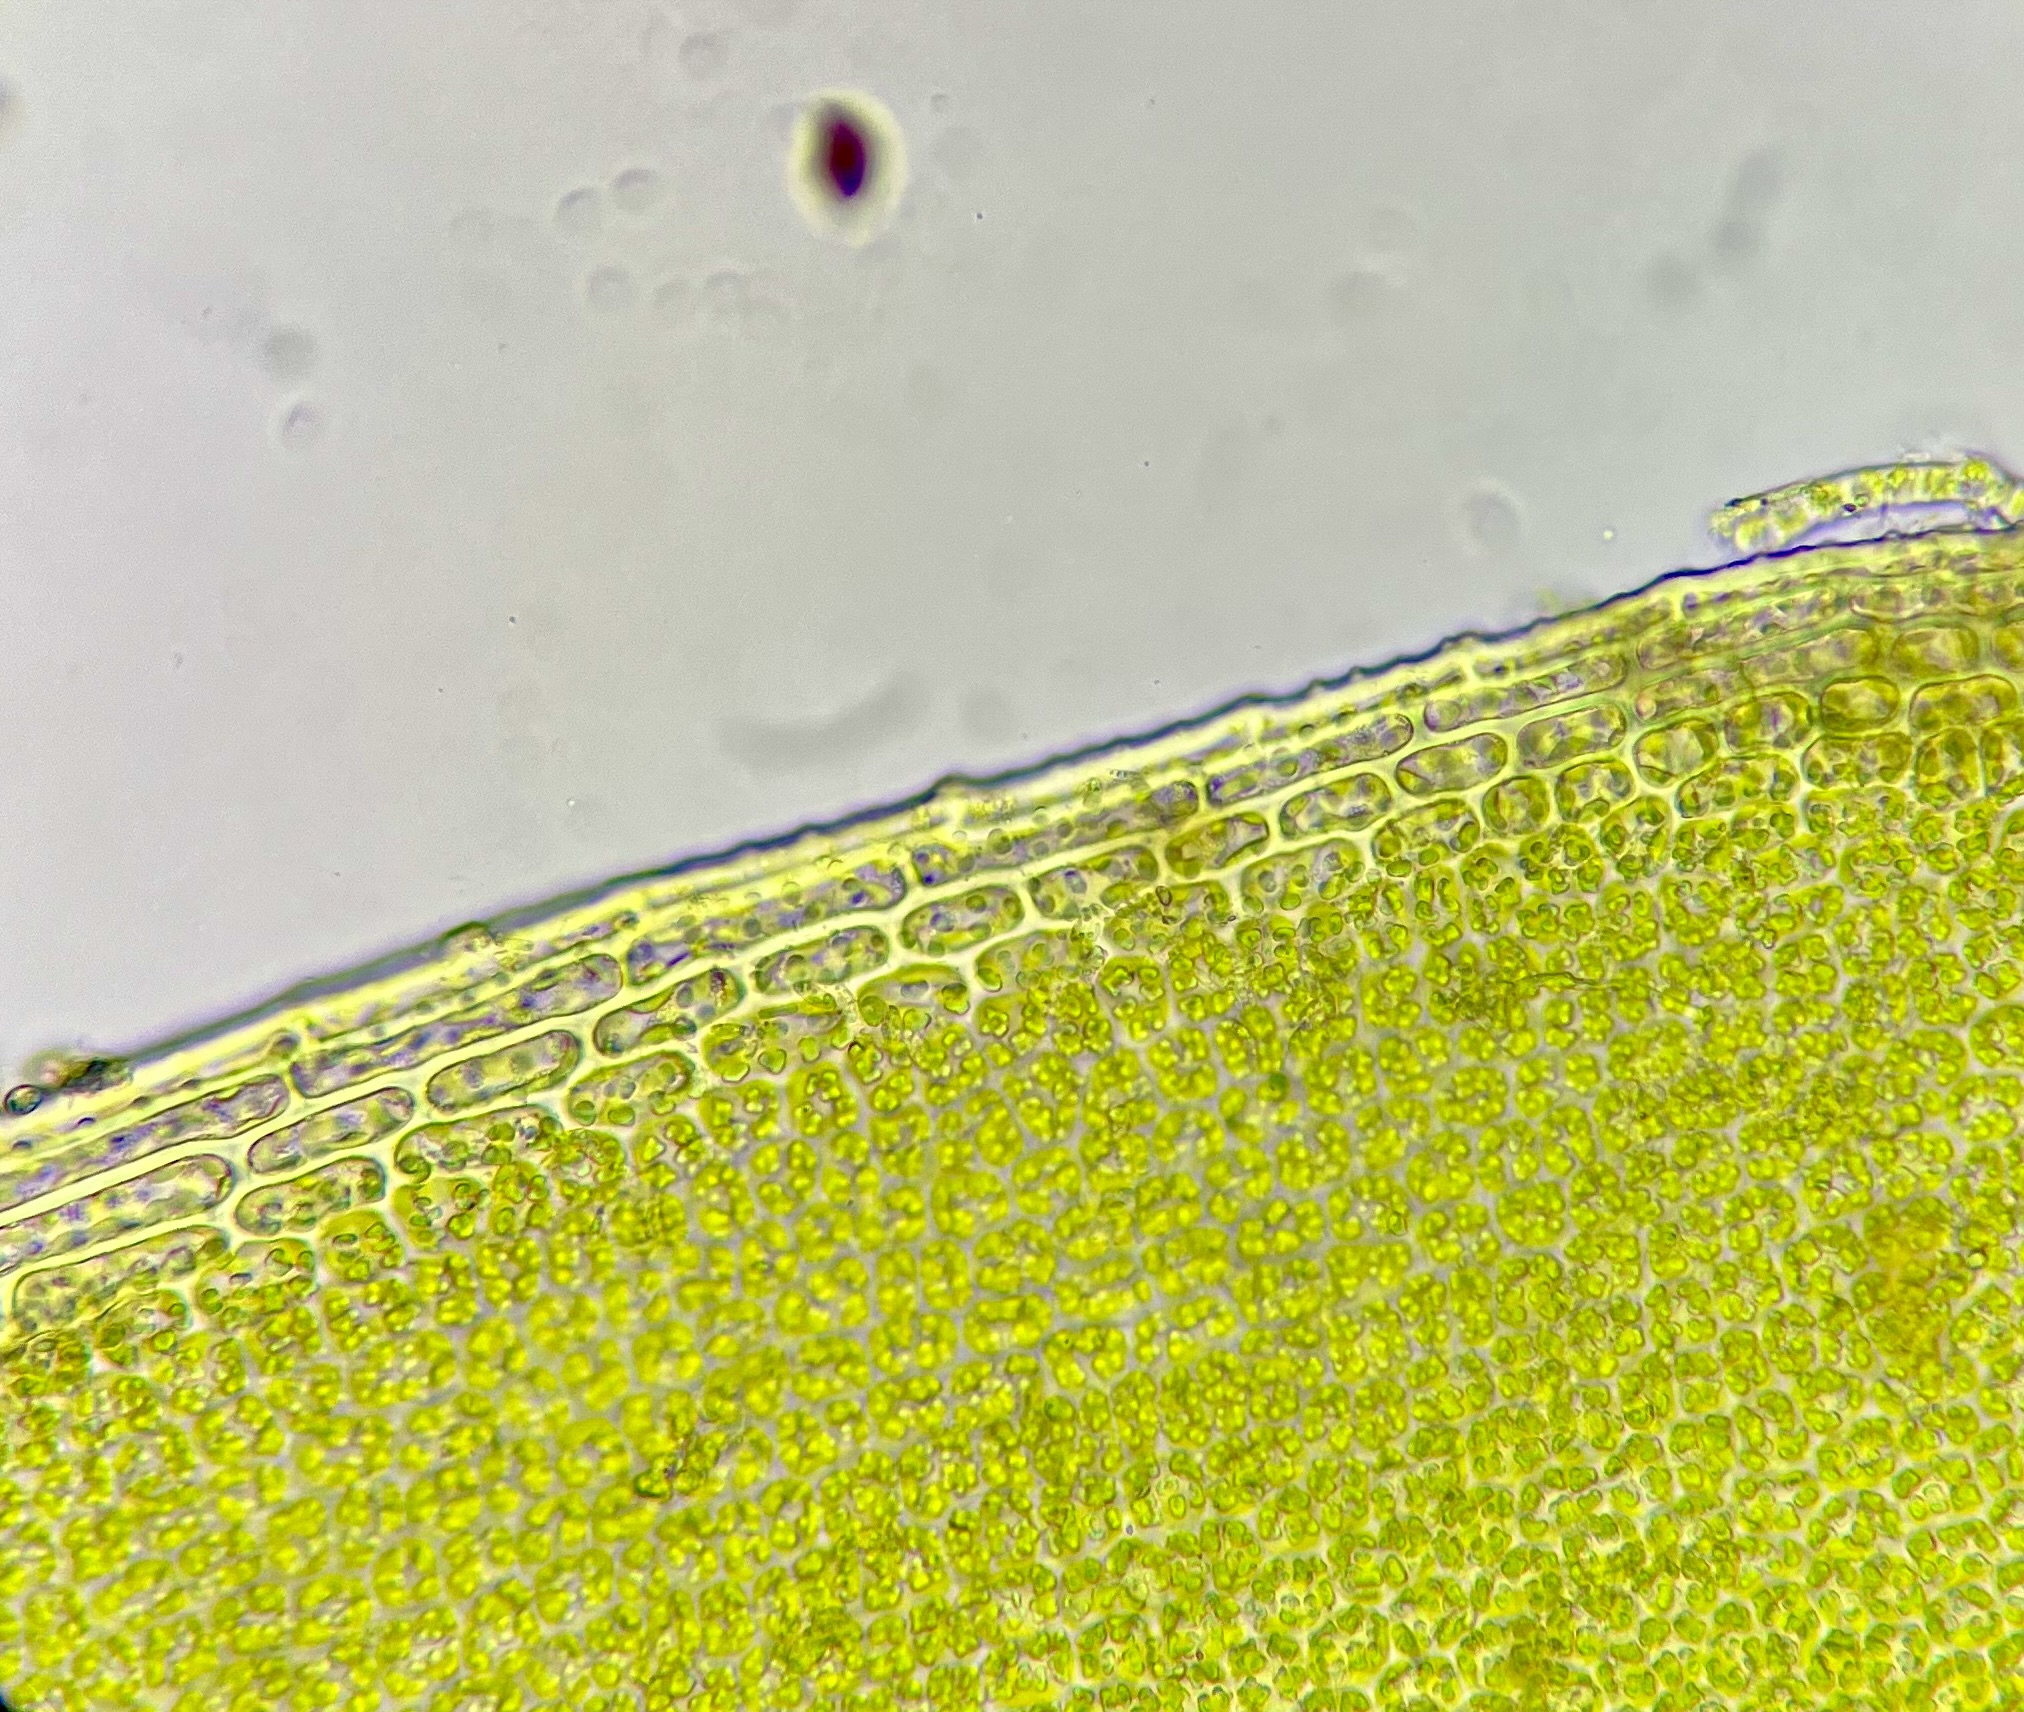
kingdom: Plantae
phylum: Bryophyta
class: Bryopsida
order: Pottiales
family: Pottiaceae
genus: Tortula
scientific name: Tortula subulata
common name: Syl-snotand
